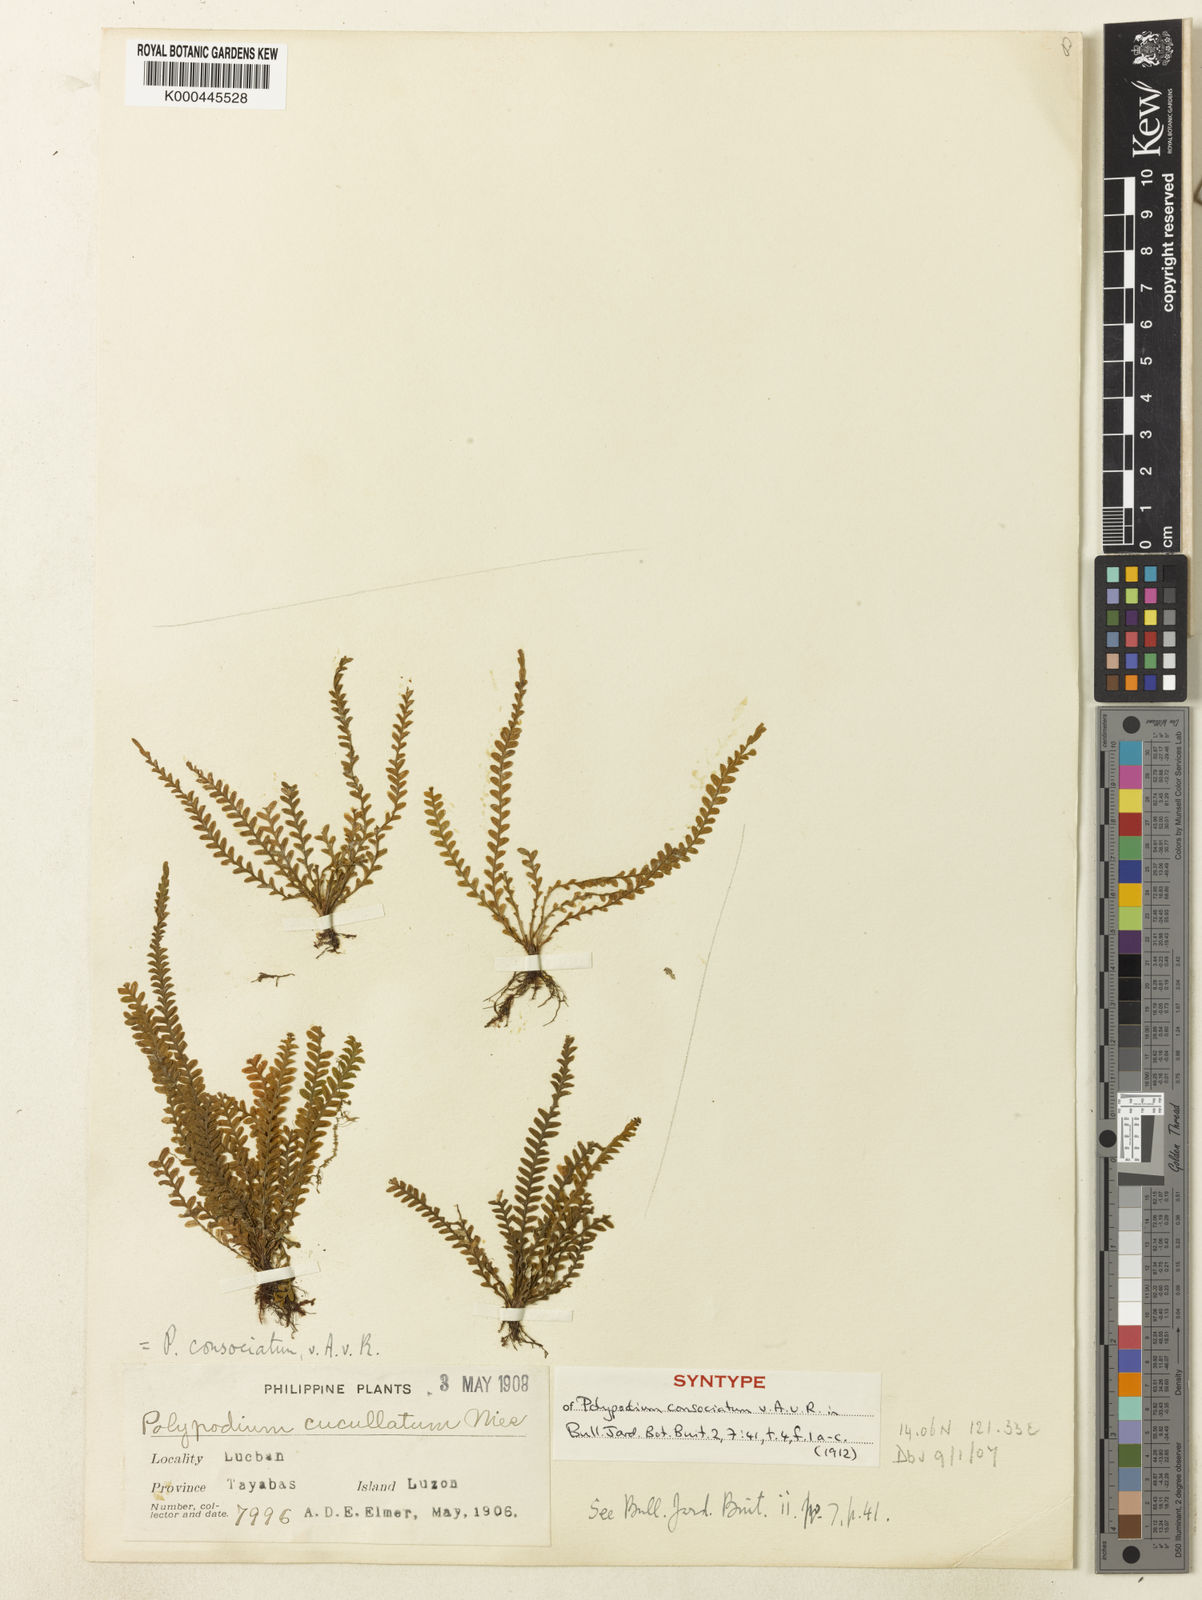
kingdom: Plantae
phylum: Tracheophyta
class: Polypodiopsida
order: Polypodiales
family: Polypodiaceae
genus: Calymmodon
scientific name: Calymmodon gracilis
